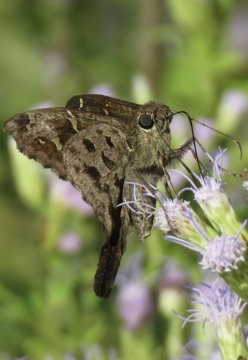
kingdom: Animalia
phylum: Arthropoda
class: Insecta
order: Lepidoptera
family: Hesperiidae
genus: Urbanus
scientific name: Urbanus dorantes
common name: Dorantes Longtail
